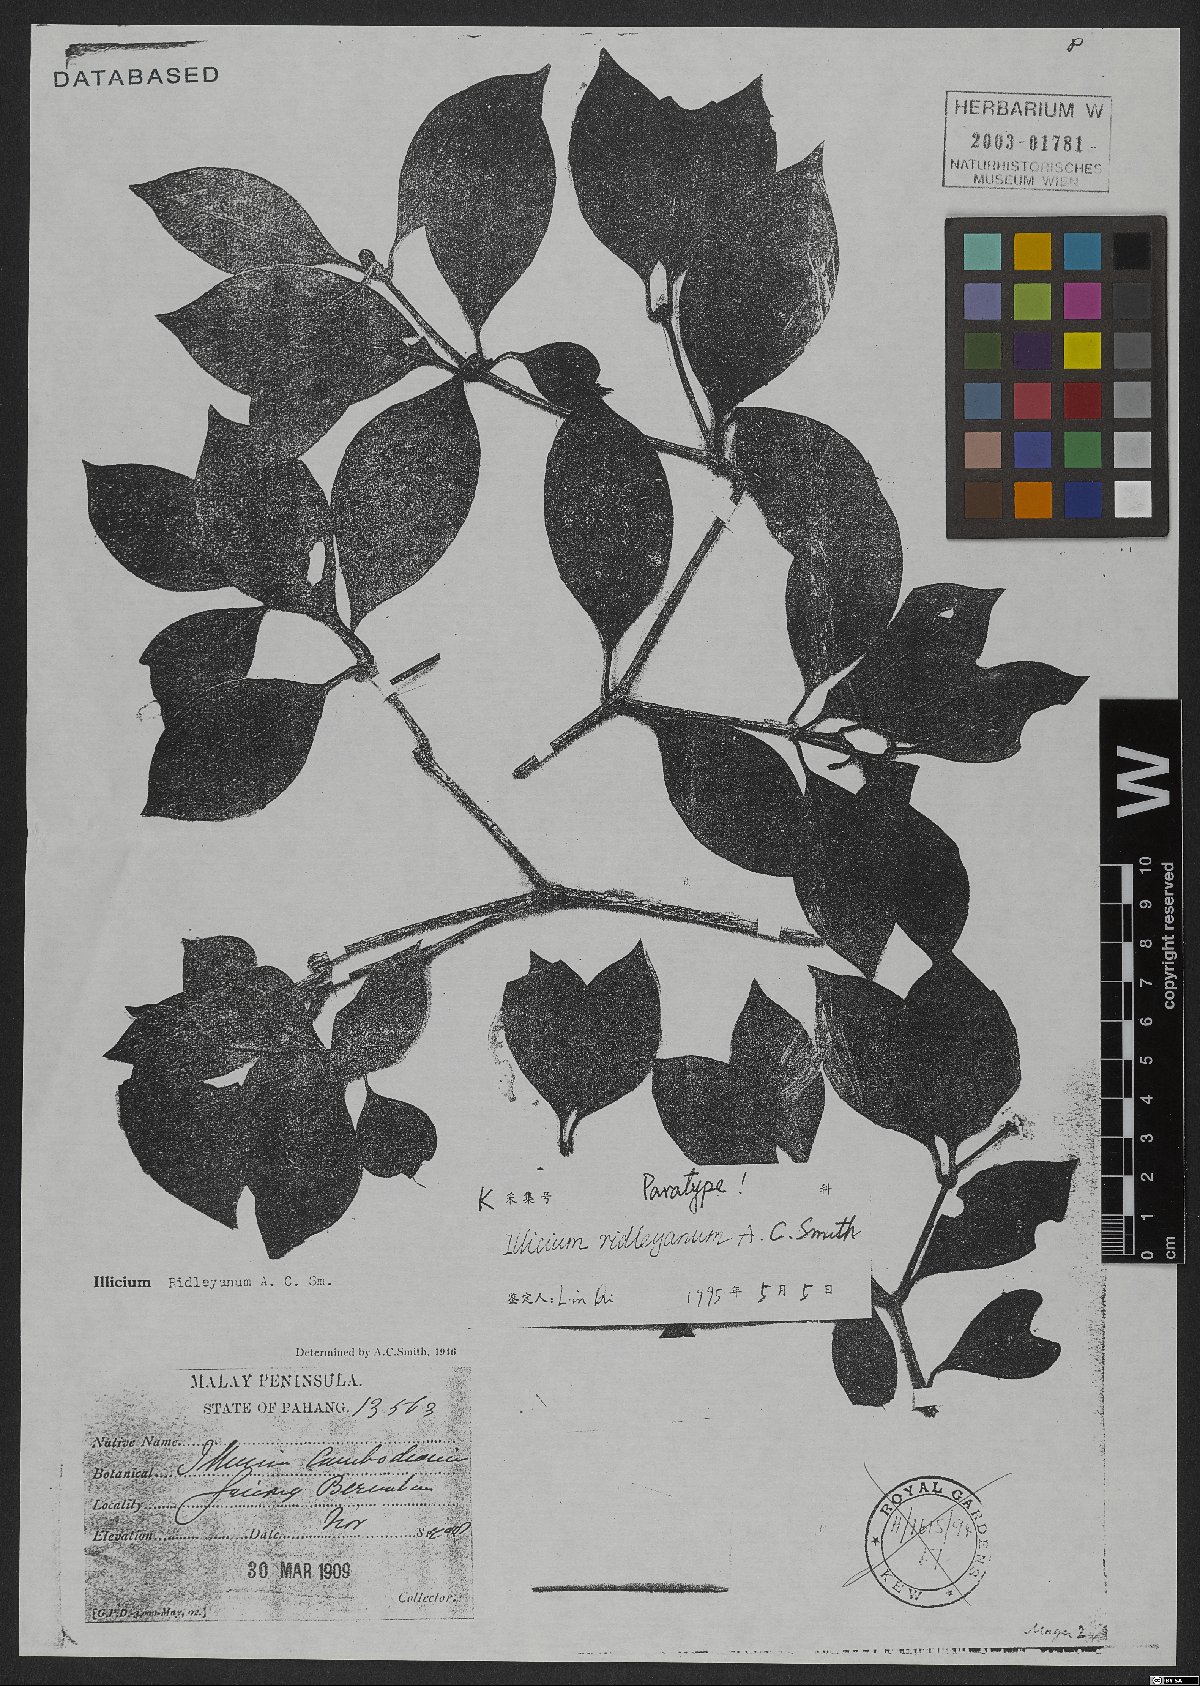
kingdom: Plantae
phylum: Tracheophyta
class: Magnoliopsida
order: Austrobaileyales
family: Schisandraceae
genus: Illicium
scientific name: Illicium ridleyanum
